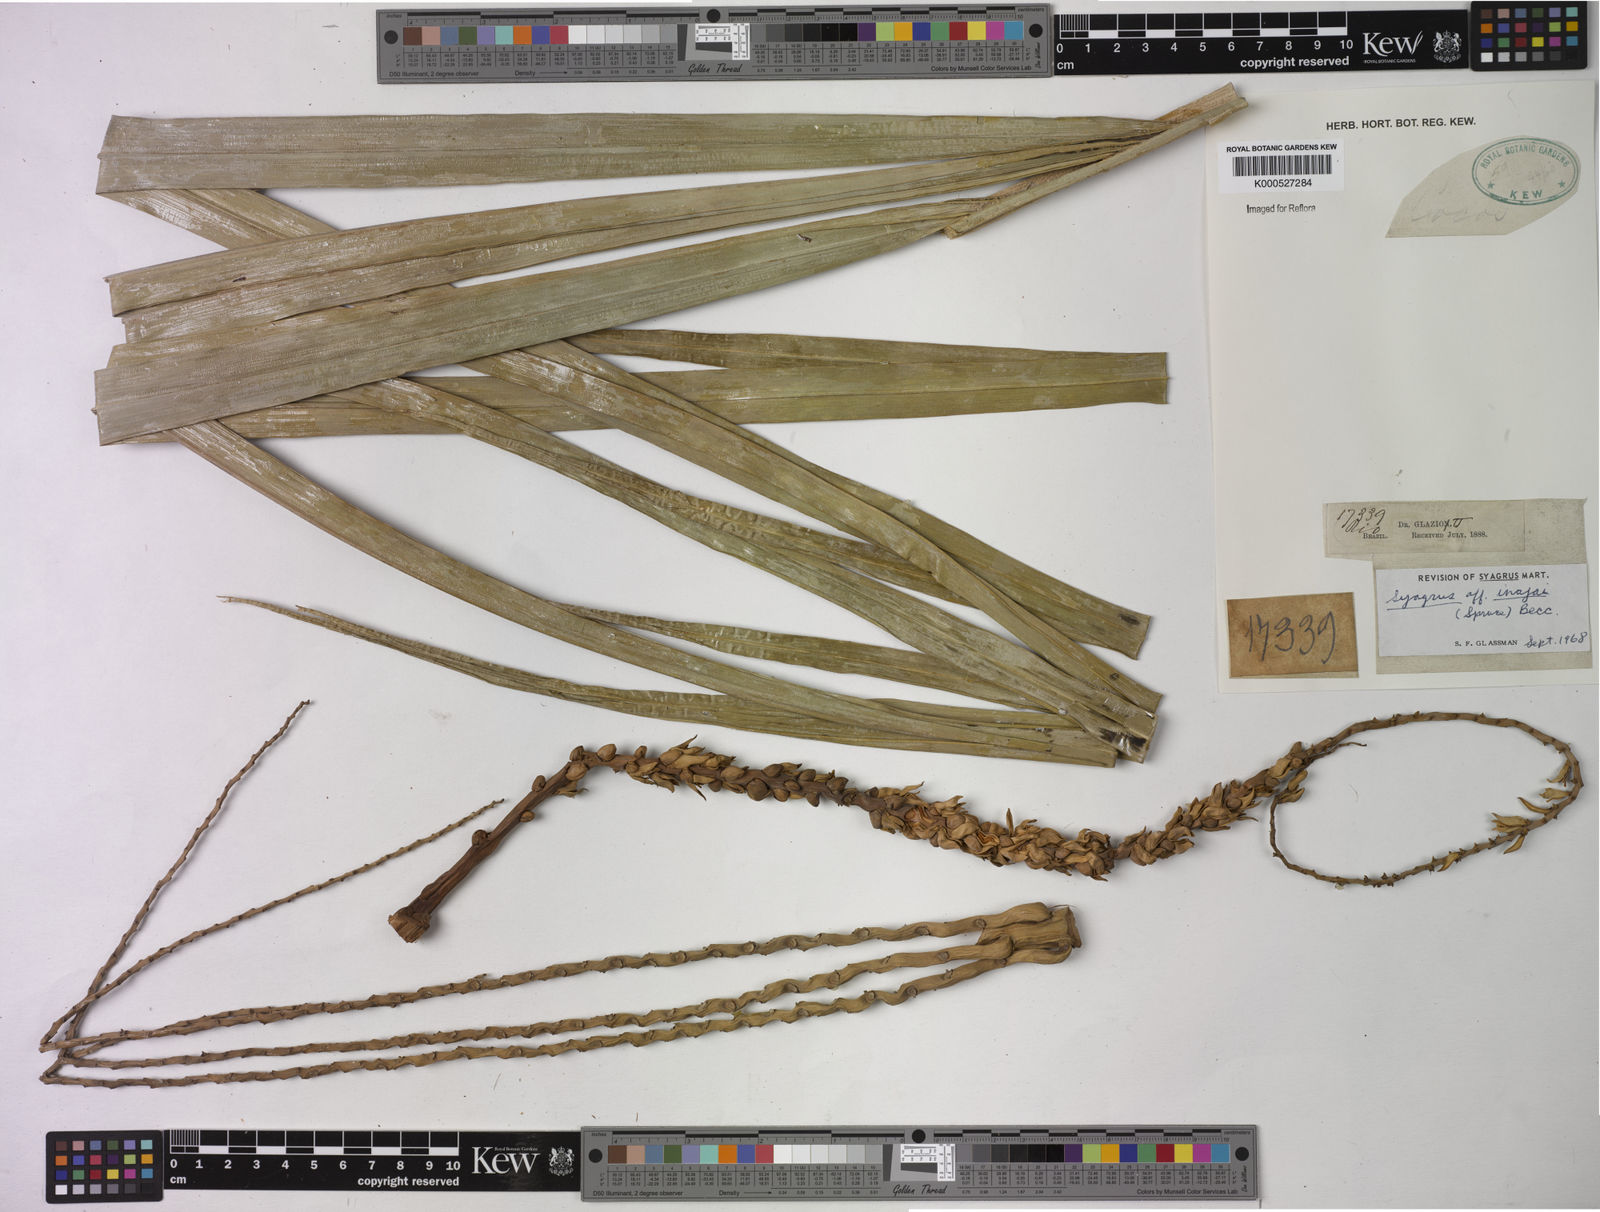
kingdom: Plantae
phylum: Tracheophyta
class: Liliopsida
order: Arecales
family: Arecaceae
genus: Syagrus
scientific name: Syagrus inajai
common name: Pupunha palm
